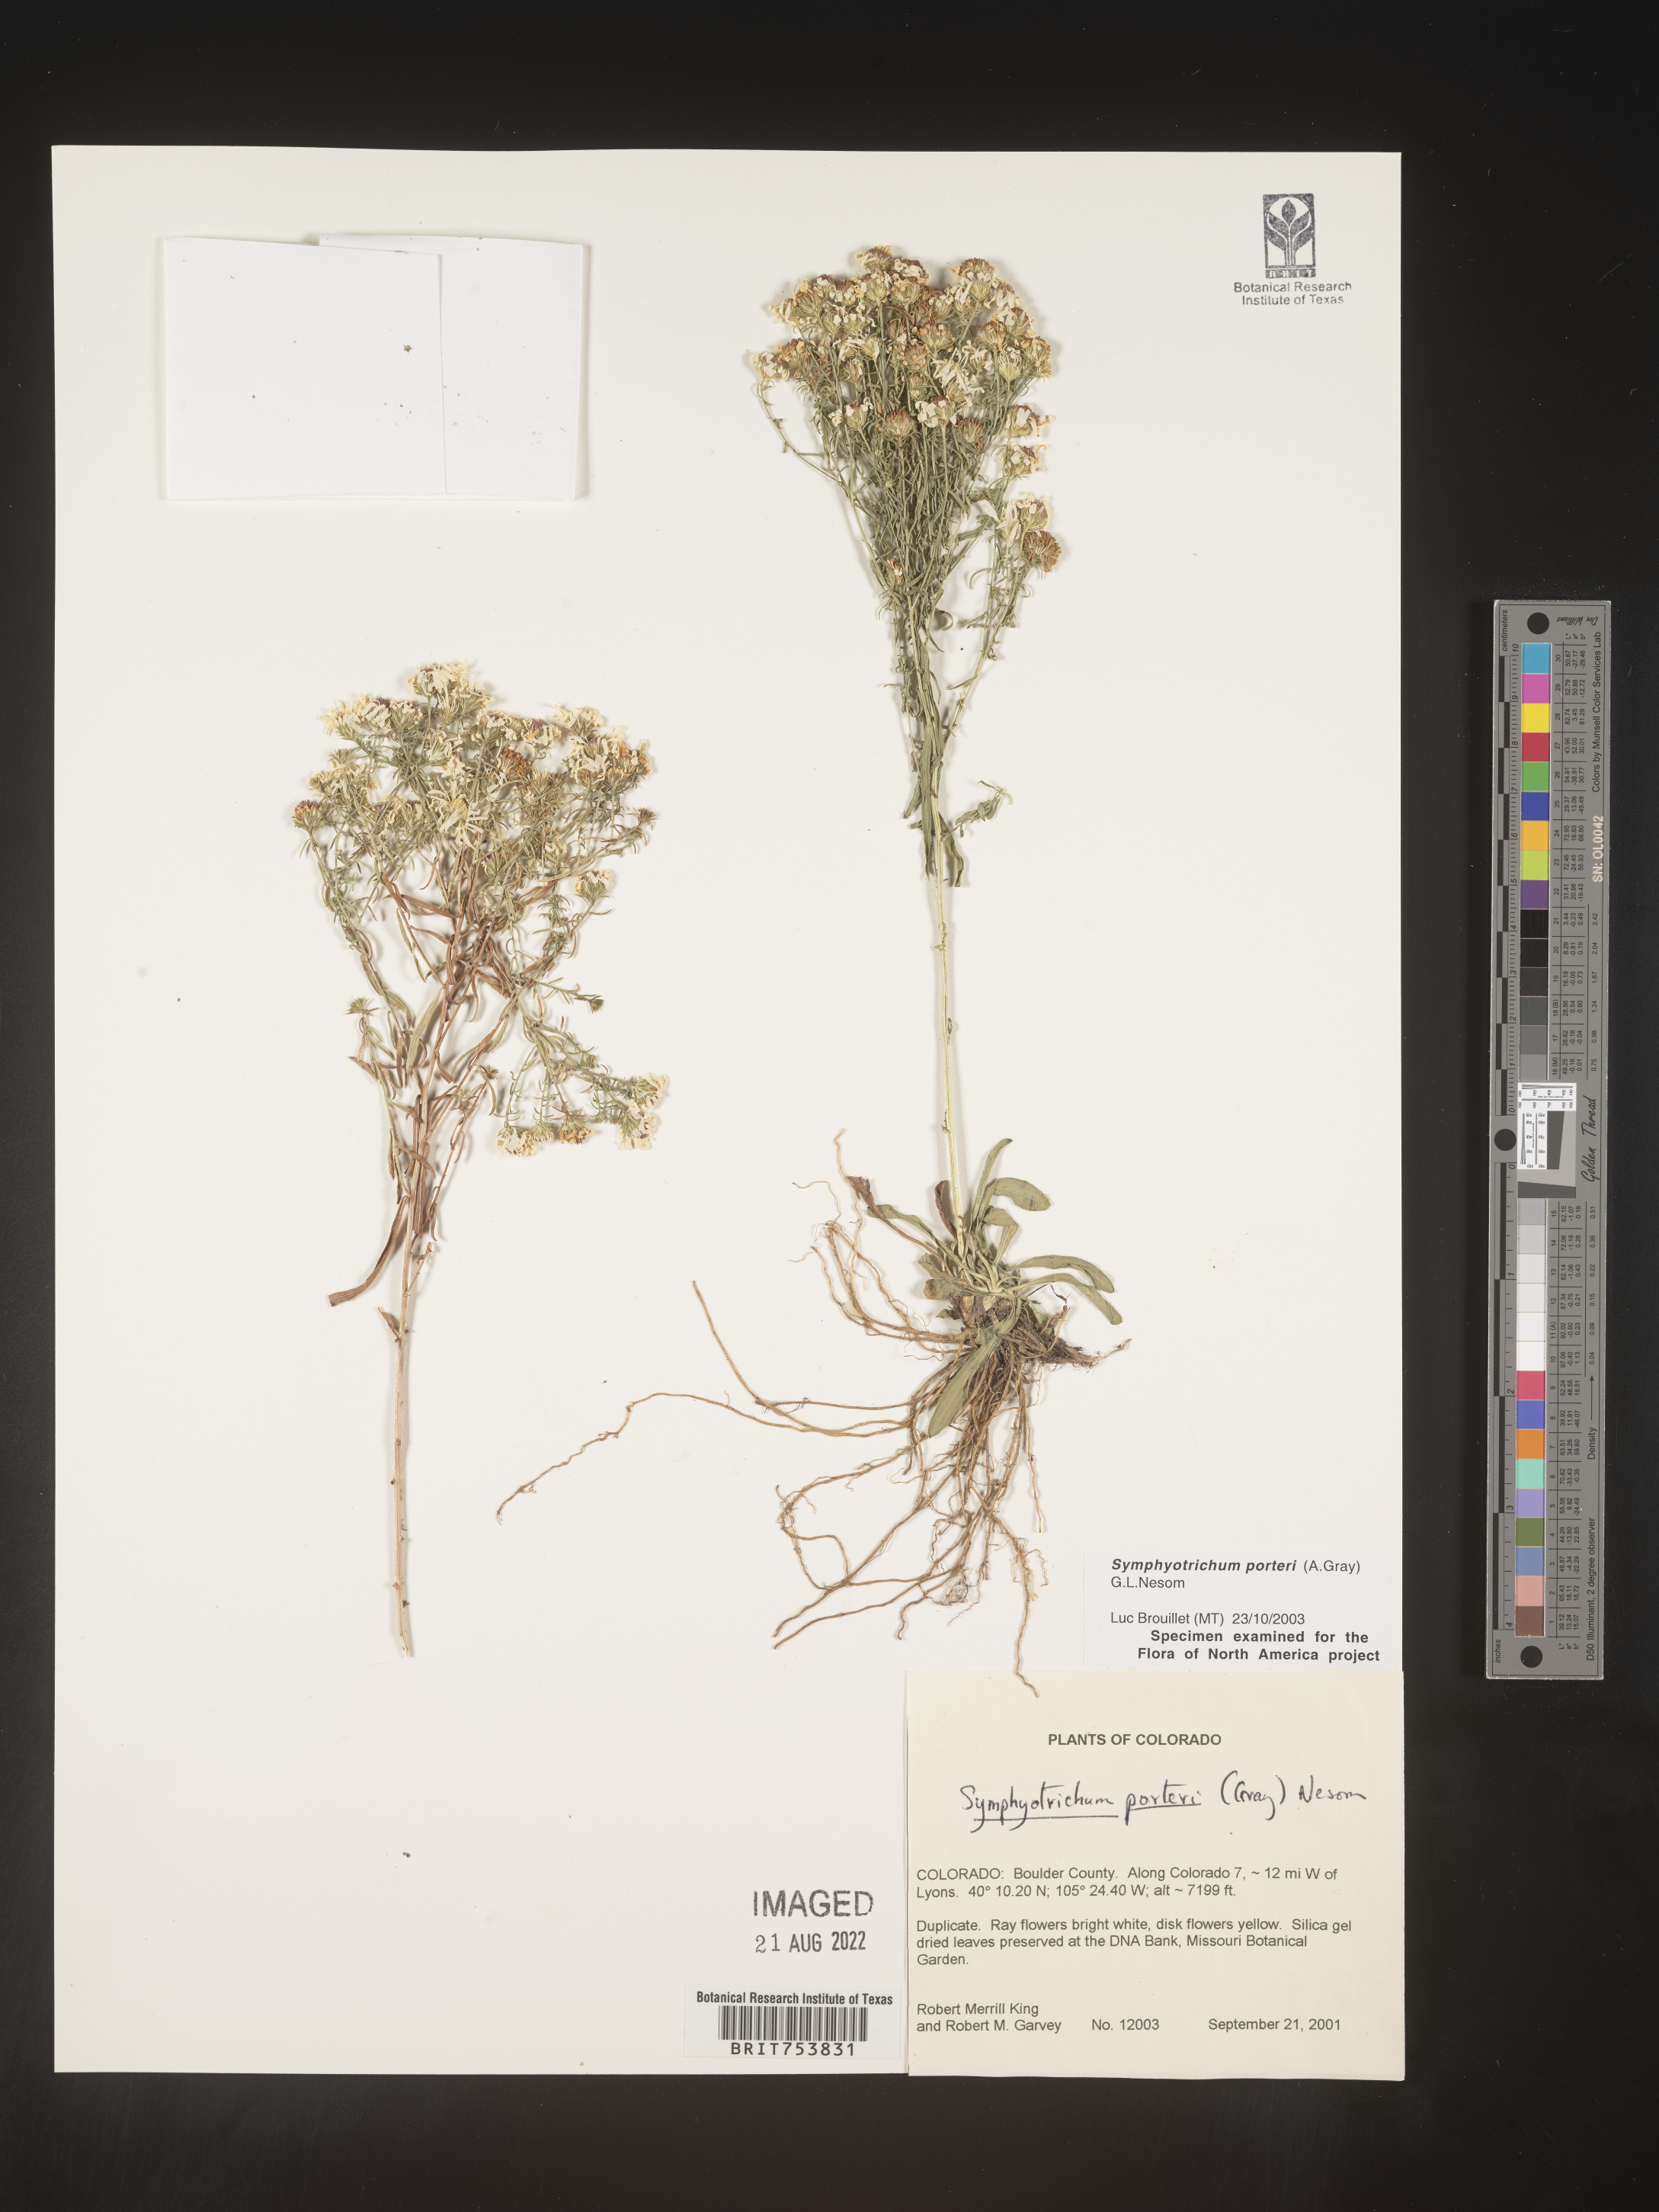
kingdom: Plantae
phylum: Tracheophyta
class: Magnoliopsida
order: Asterales
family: Asteraceae
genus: Symphyotrichum
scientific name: Symphyotrichum porteri
